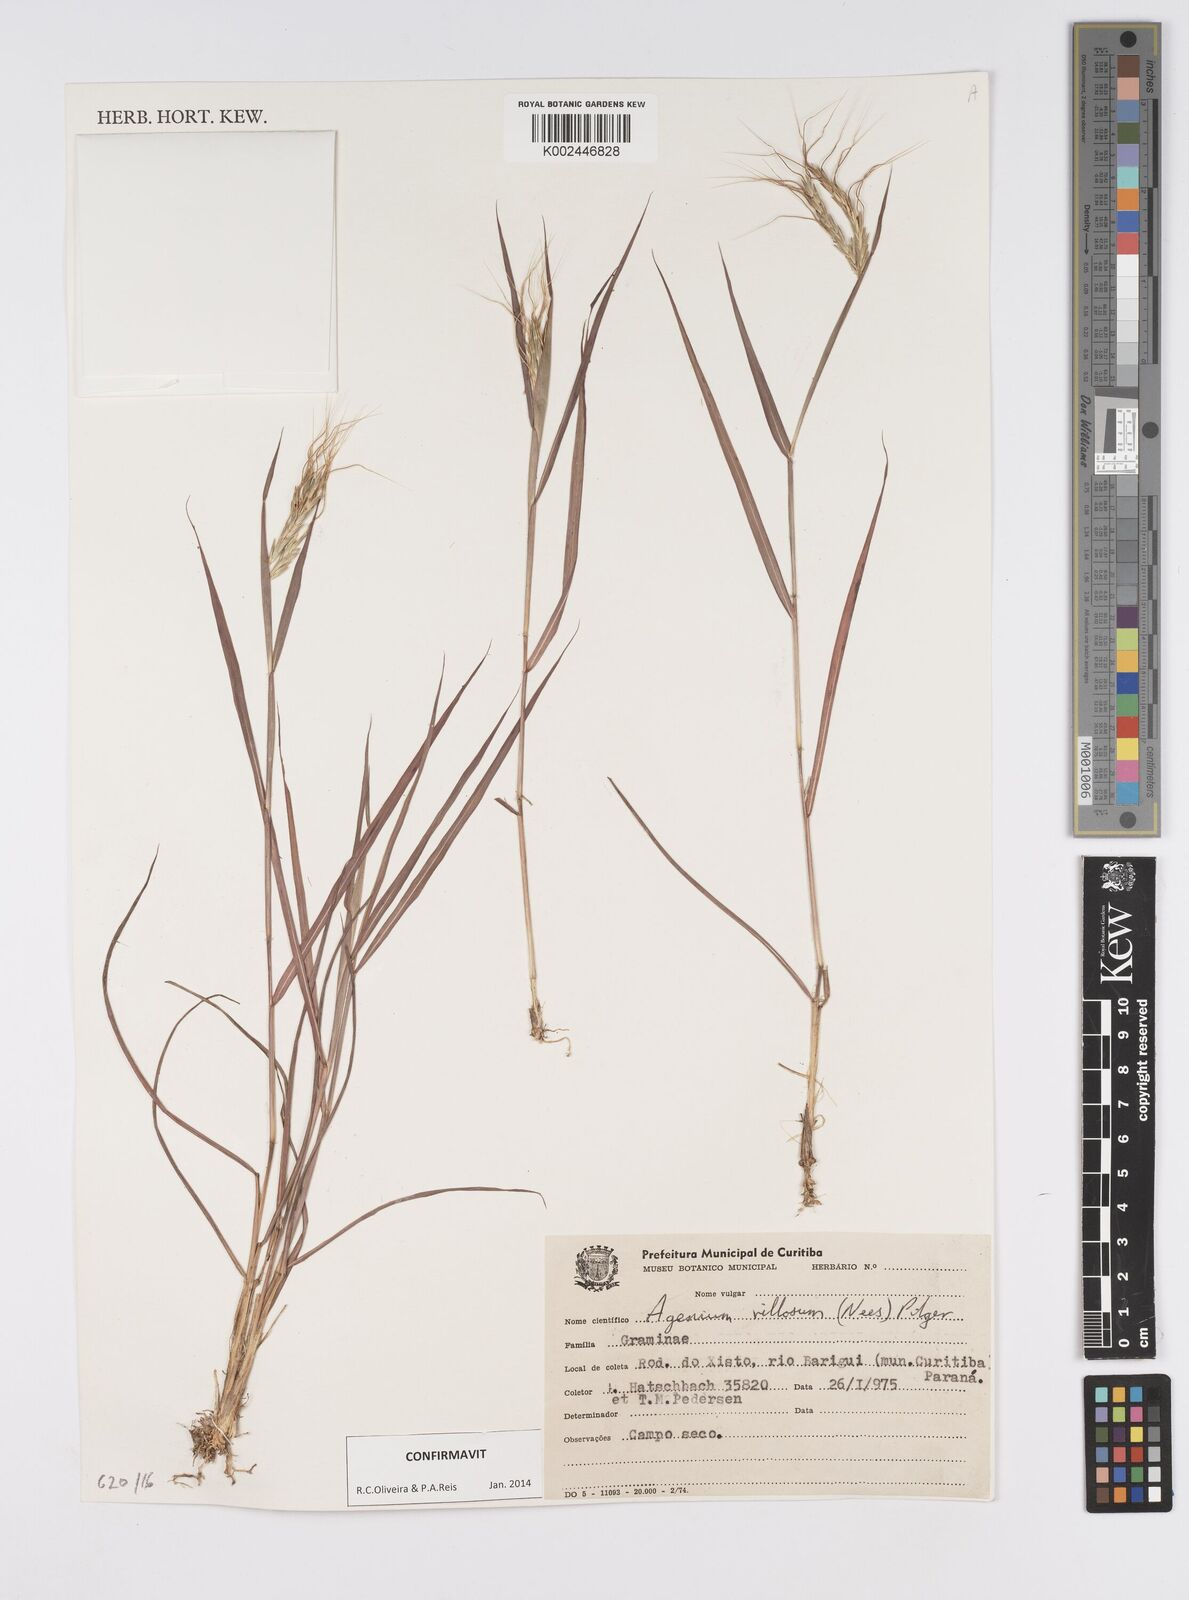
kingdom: Plantae
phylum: Tracheophyta
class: Liliopsida
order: Poales
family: Poaceae
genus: Agenium
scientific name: Agenium villosum
